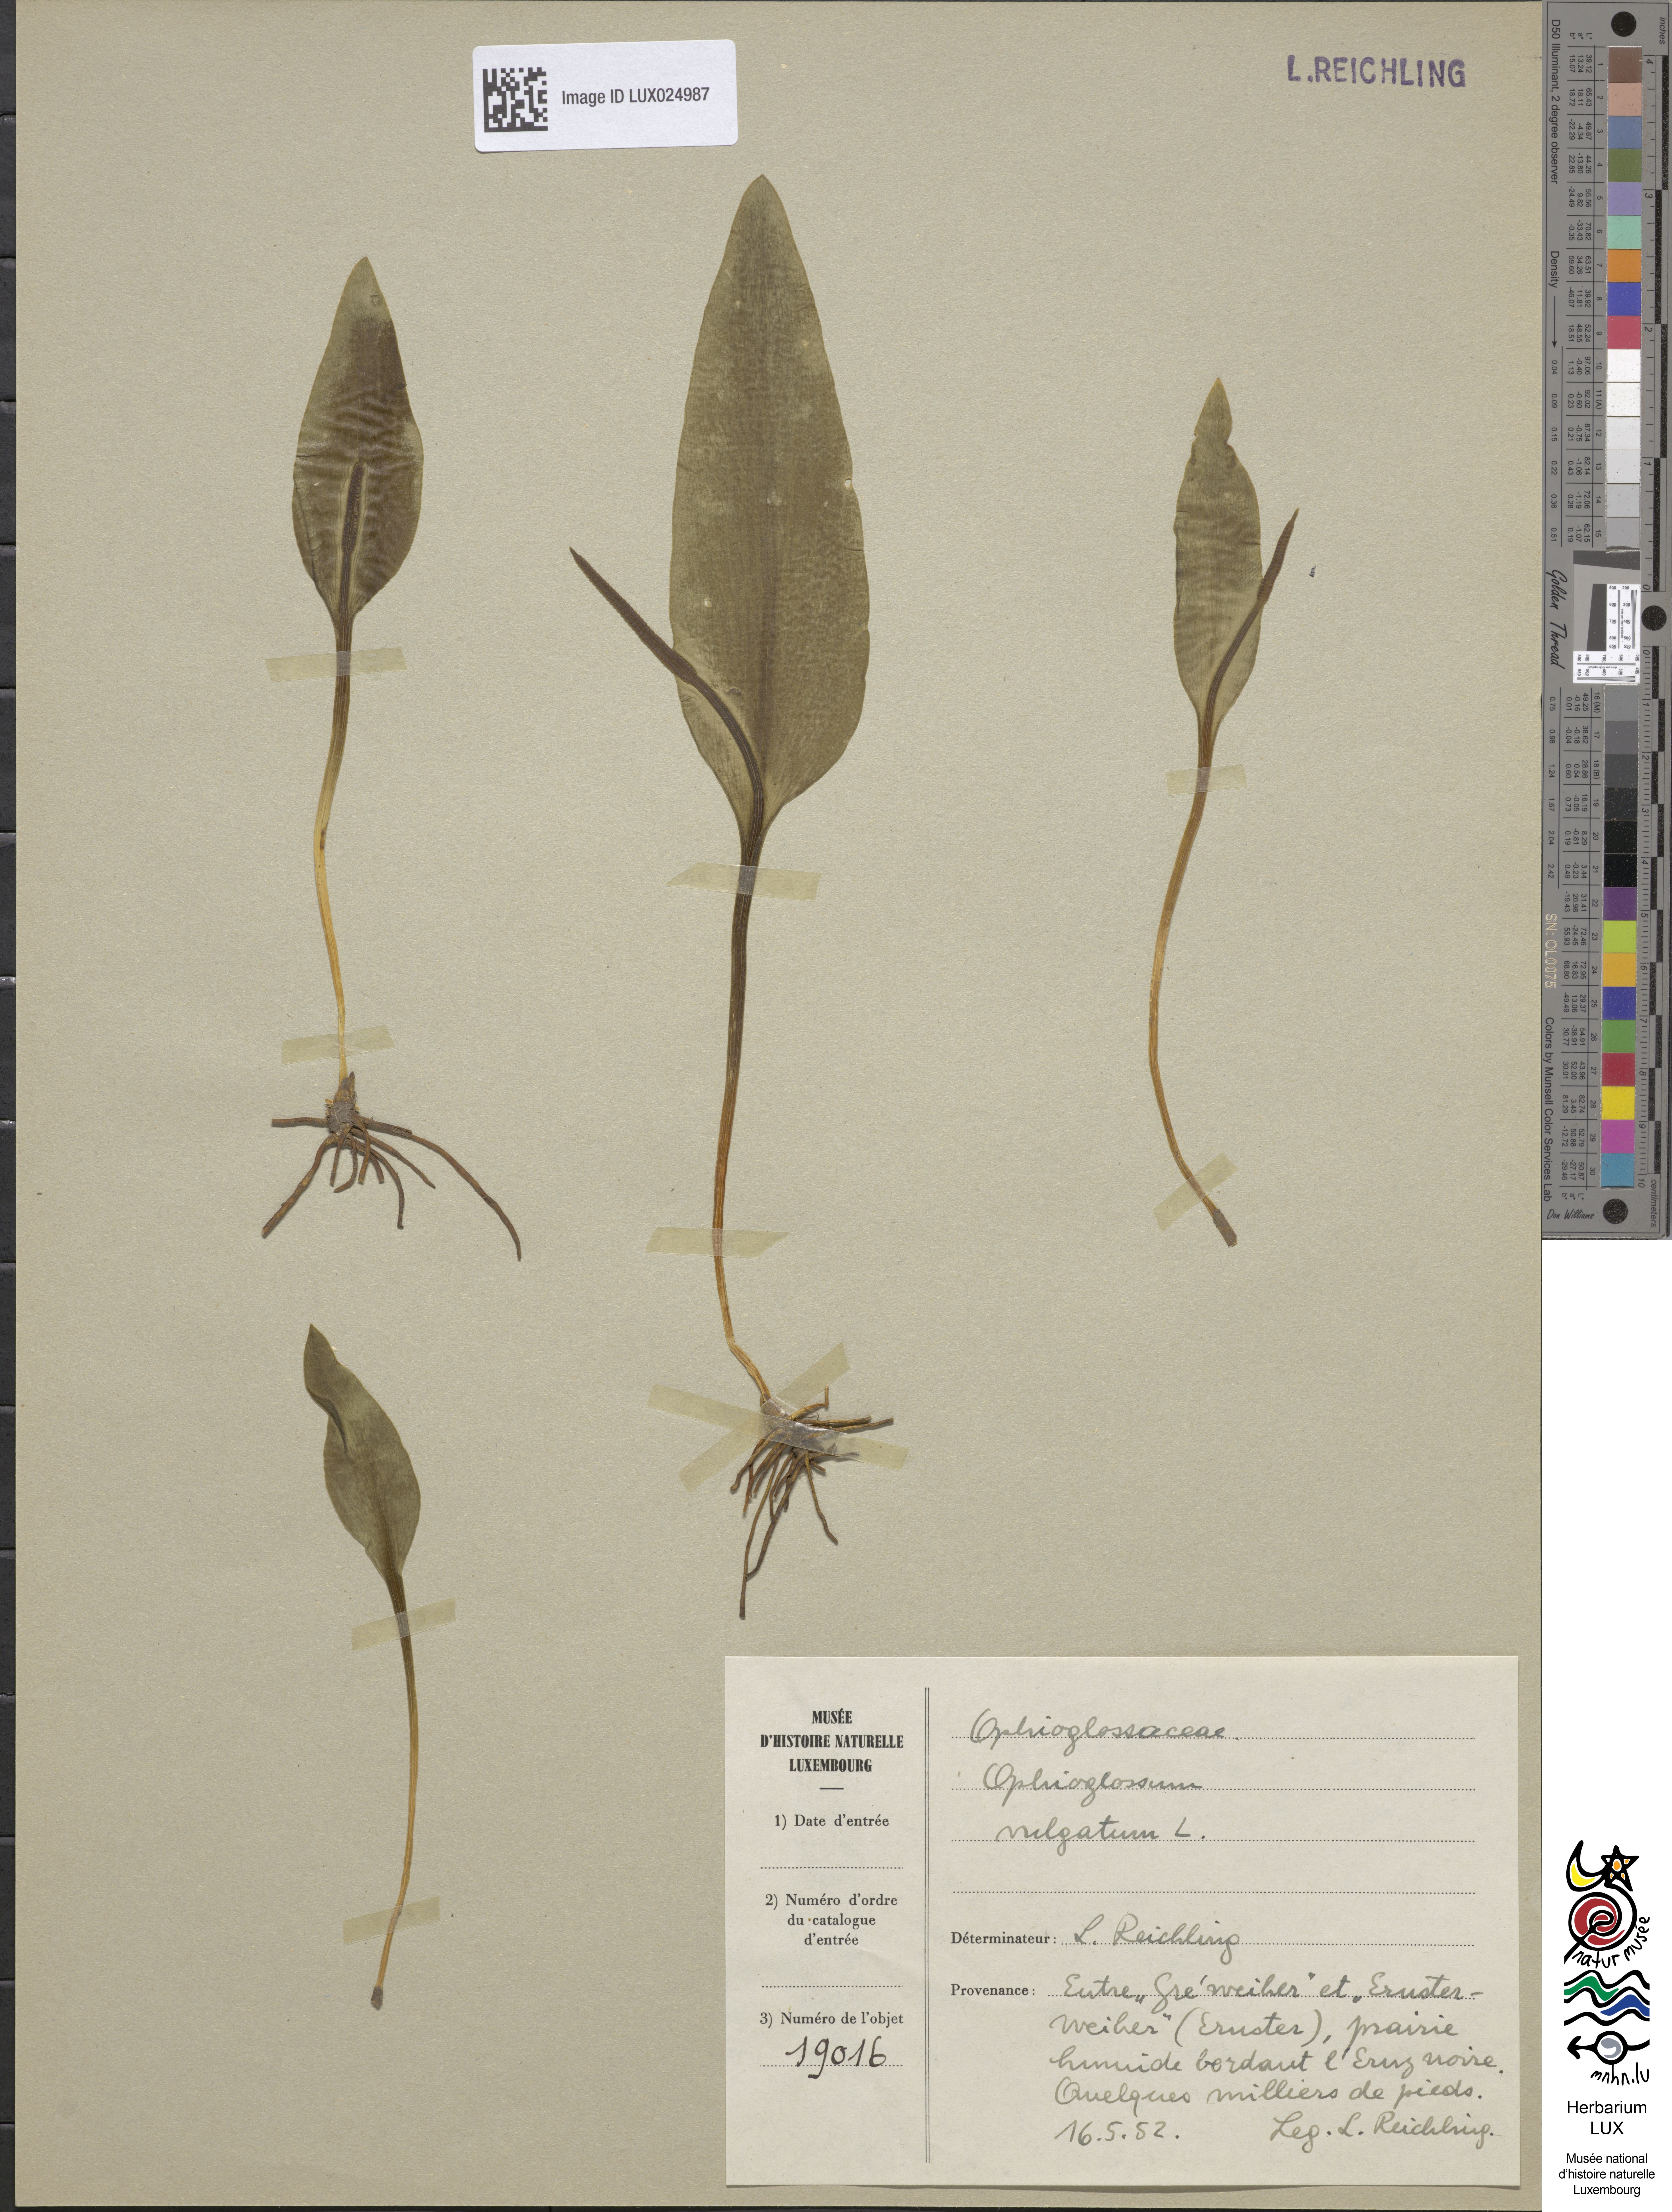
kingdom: Plantae
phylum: Tracheophyta
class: Polypodiopsida
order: Ophioglossales
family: Ophioglossaceae
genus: Ophioglossum
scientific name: Ophioglossum vulgatum
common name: Adder's-tongue
